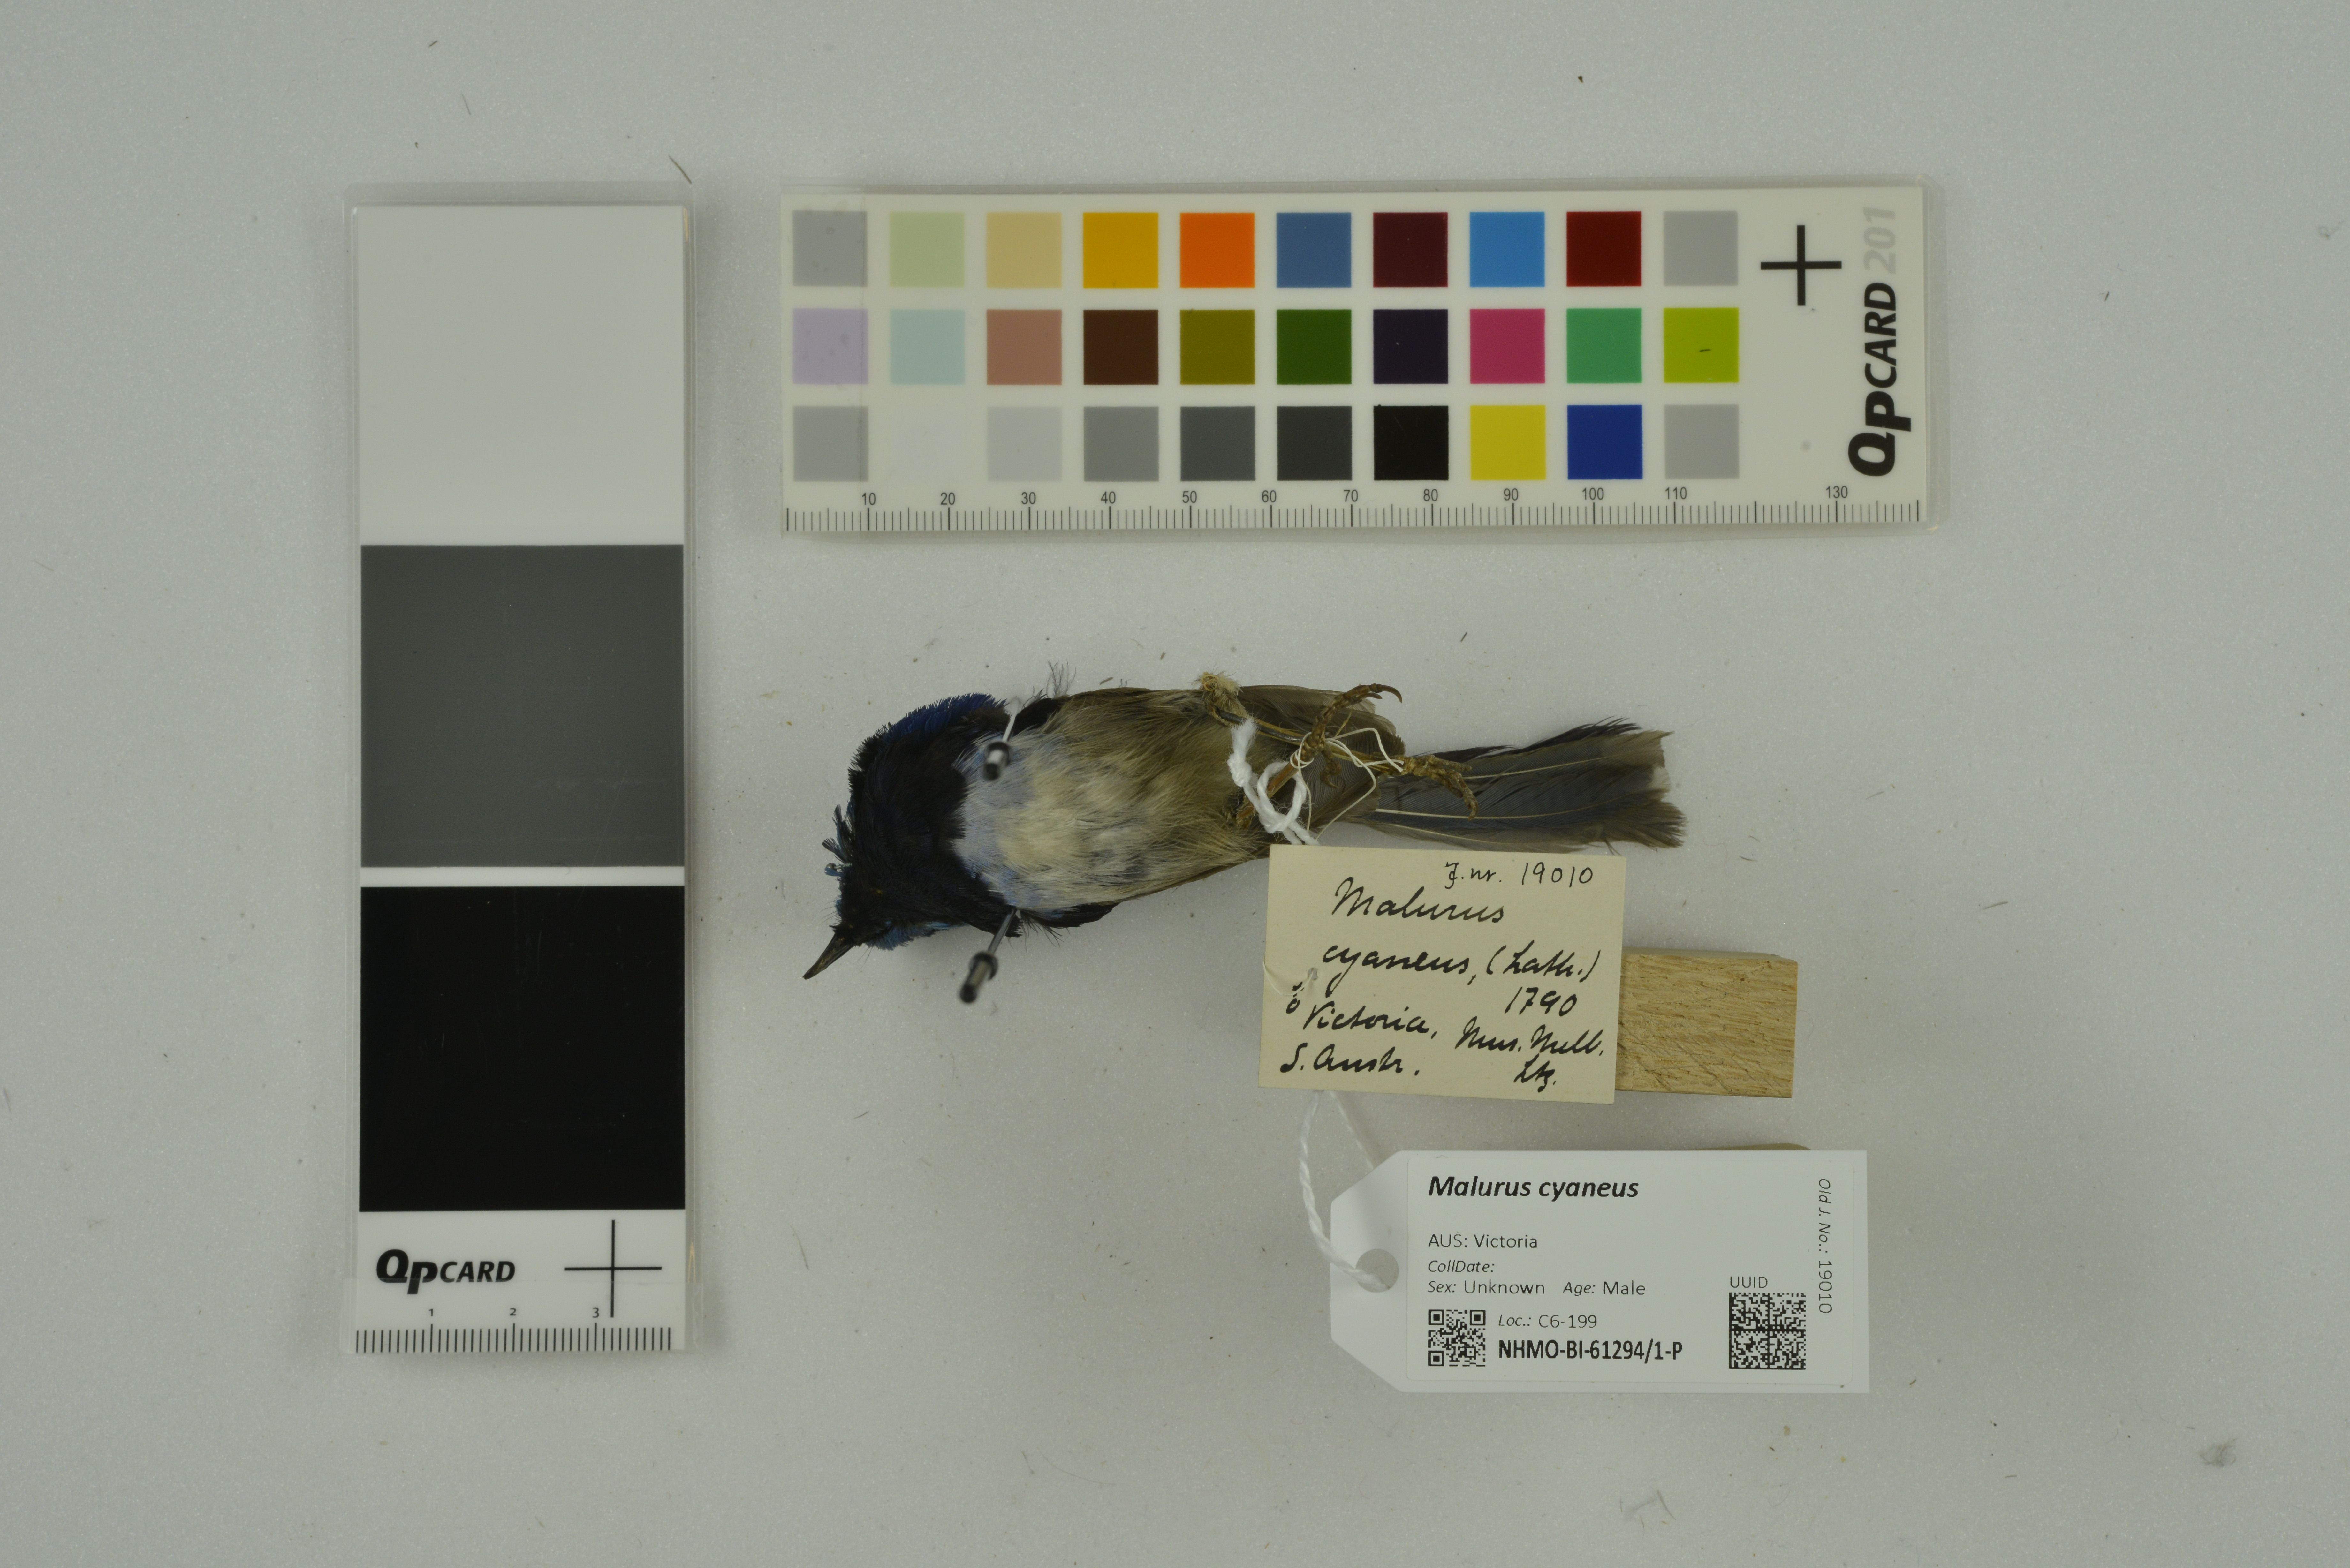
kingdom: Animalia
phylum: Chordata
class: Aves
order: Passeriformes
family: Maluridae
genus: Malurus
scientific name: Malurus cyaneus
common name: Superb fairywren
